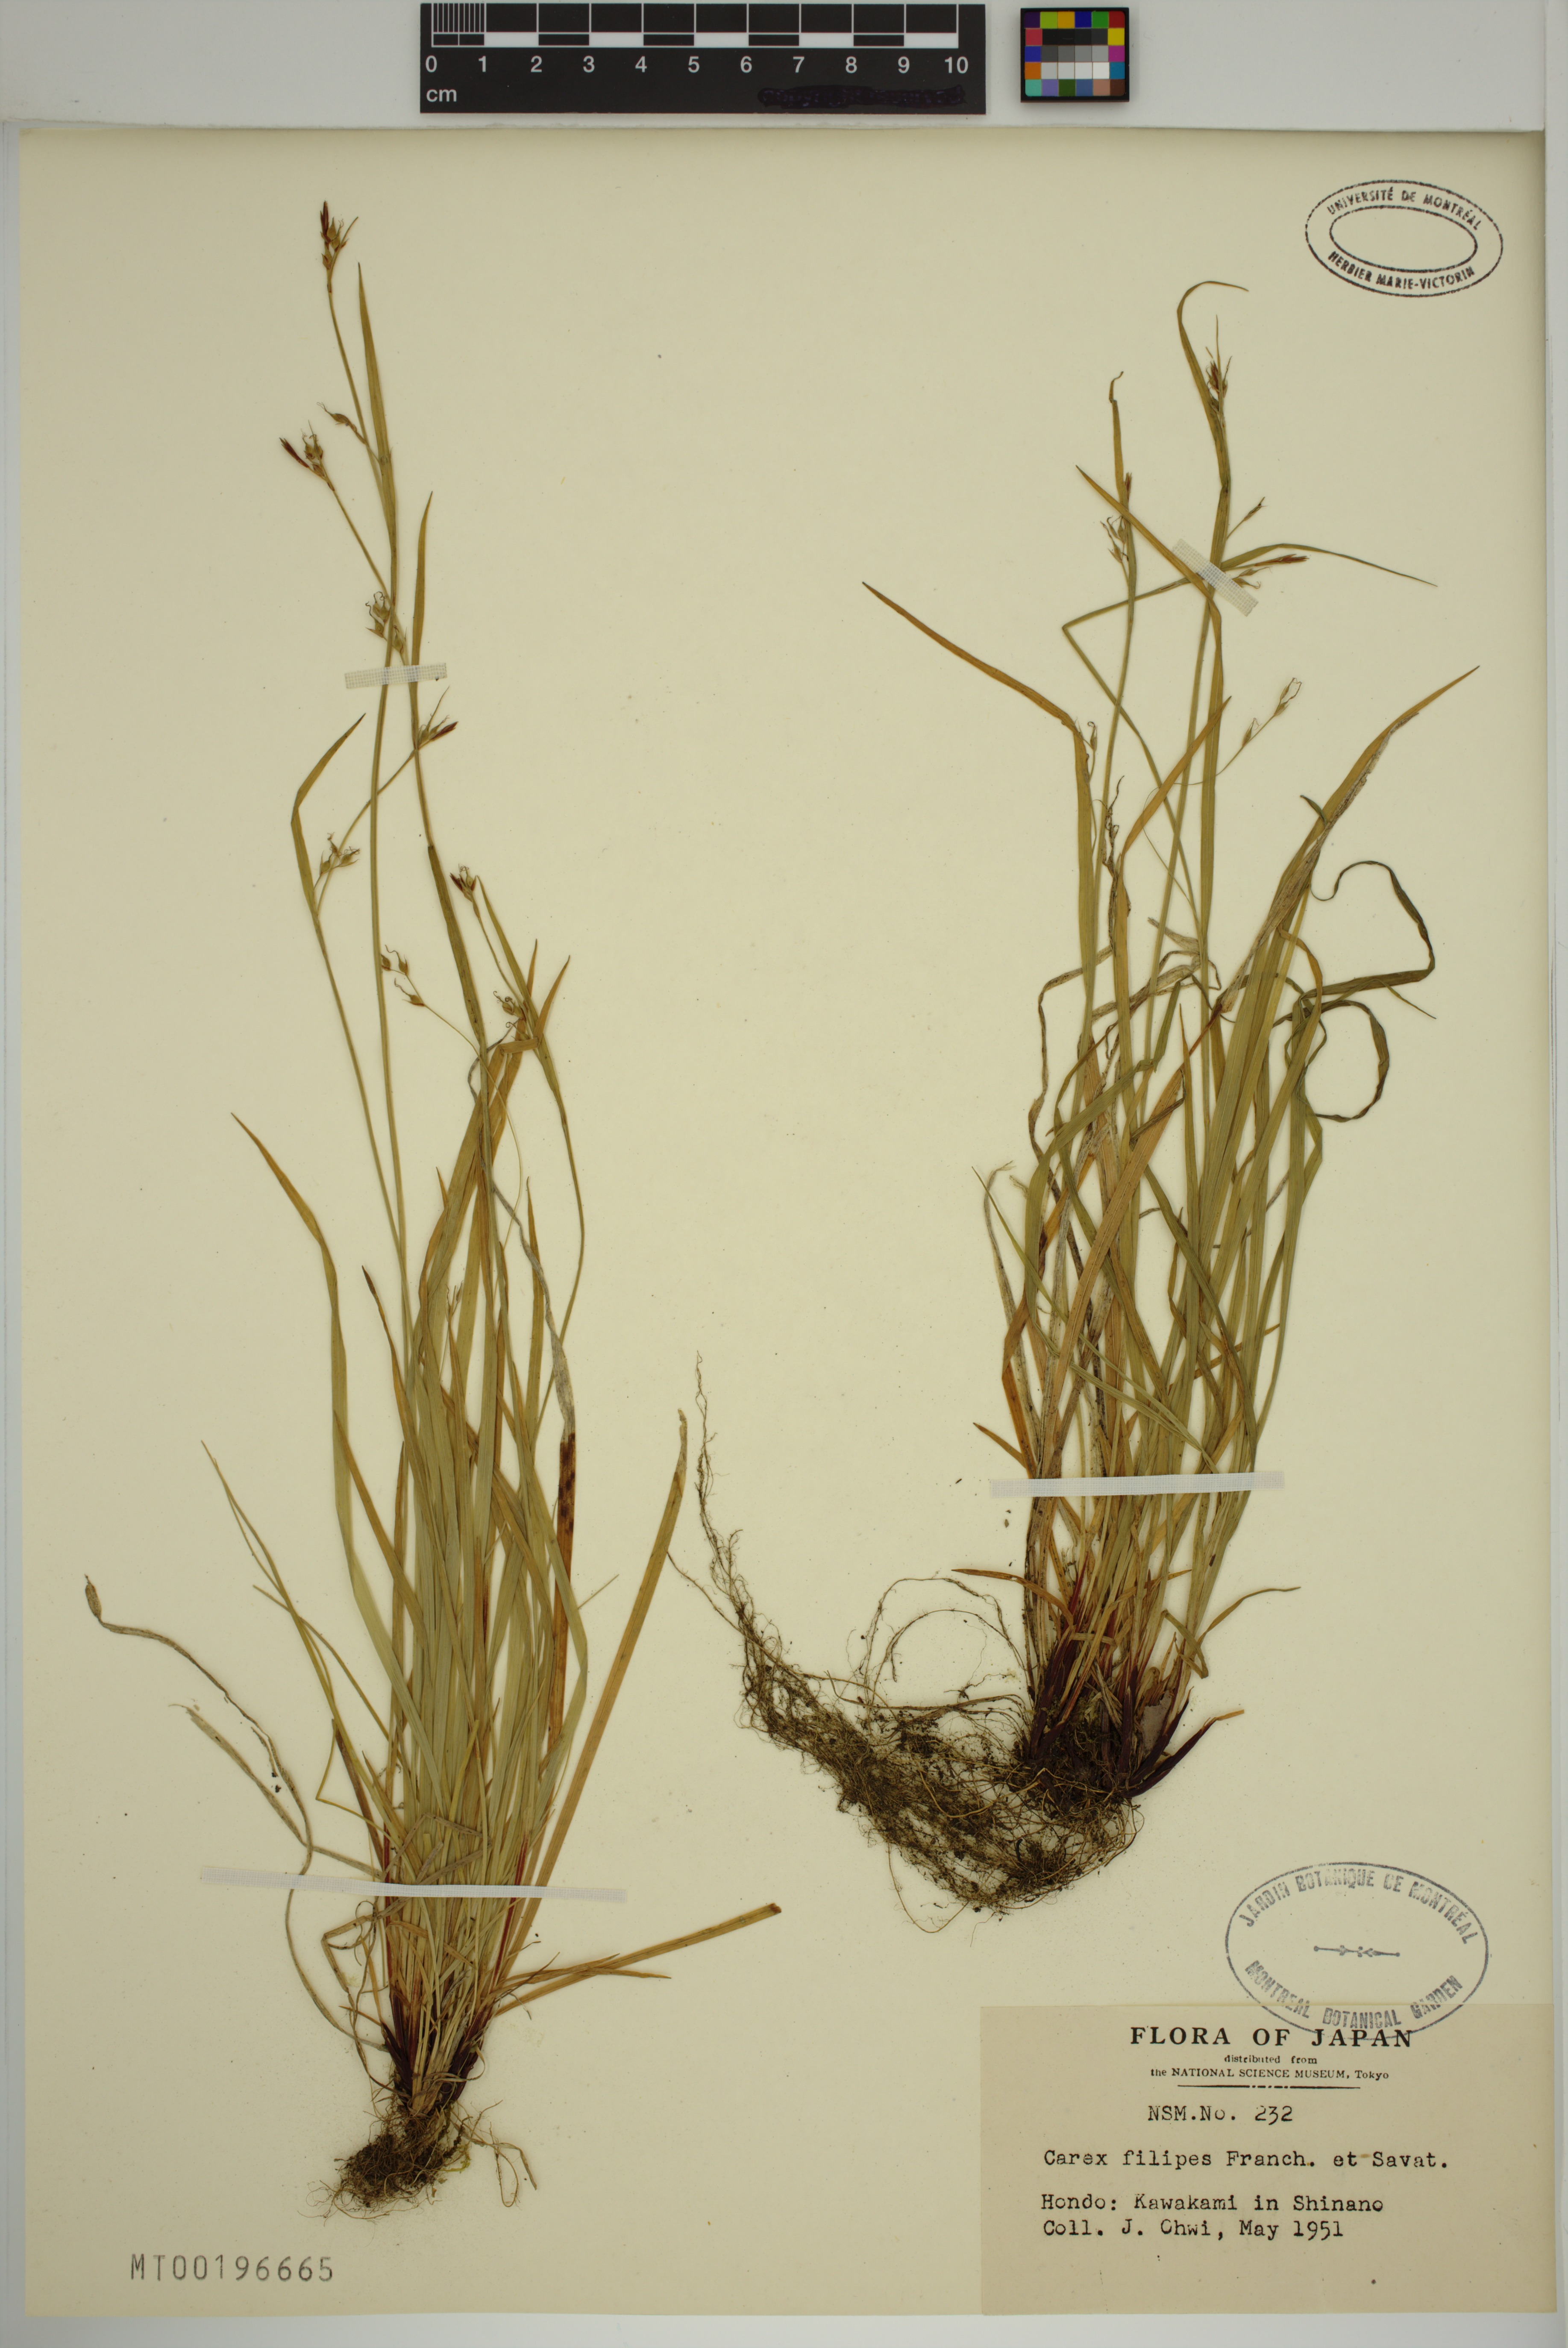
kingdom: Plantae
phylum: Tracheophyta
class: Liliopsida
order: Poales
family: Cyperaceae
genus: Carex
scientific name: Carex filipes
